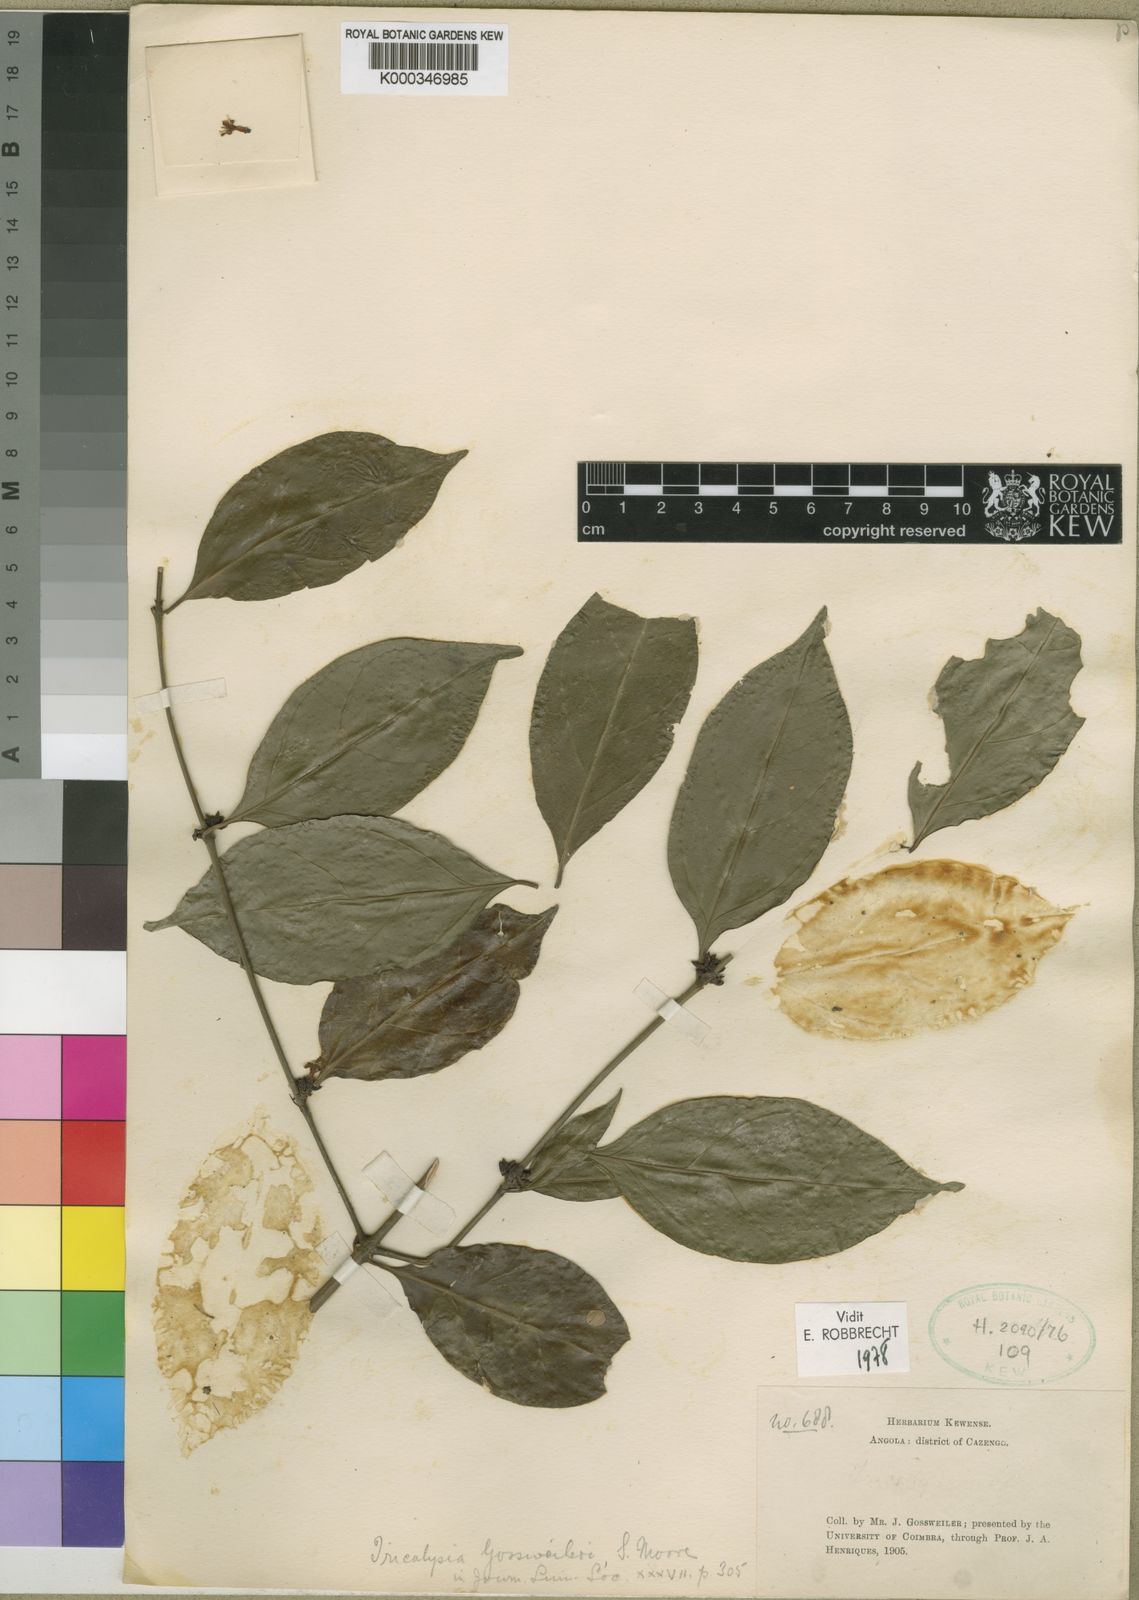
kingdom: Plantae
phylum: Tracheophyta
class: Magnoliopsida
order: Gentianales
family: Rubiaceae
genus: Empogona
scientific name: Empogona gossweileri
